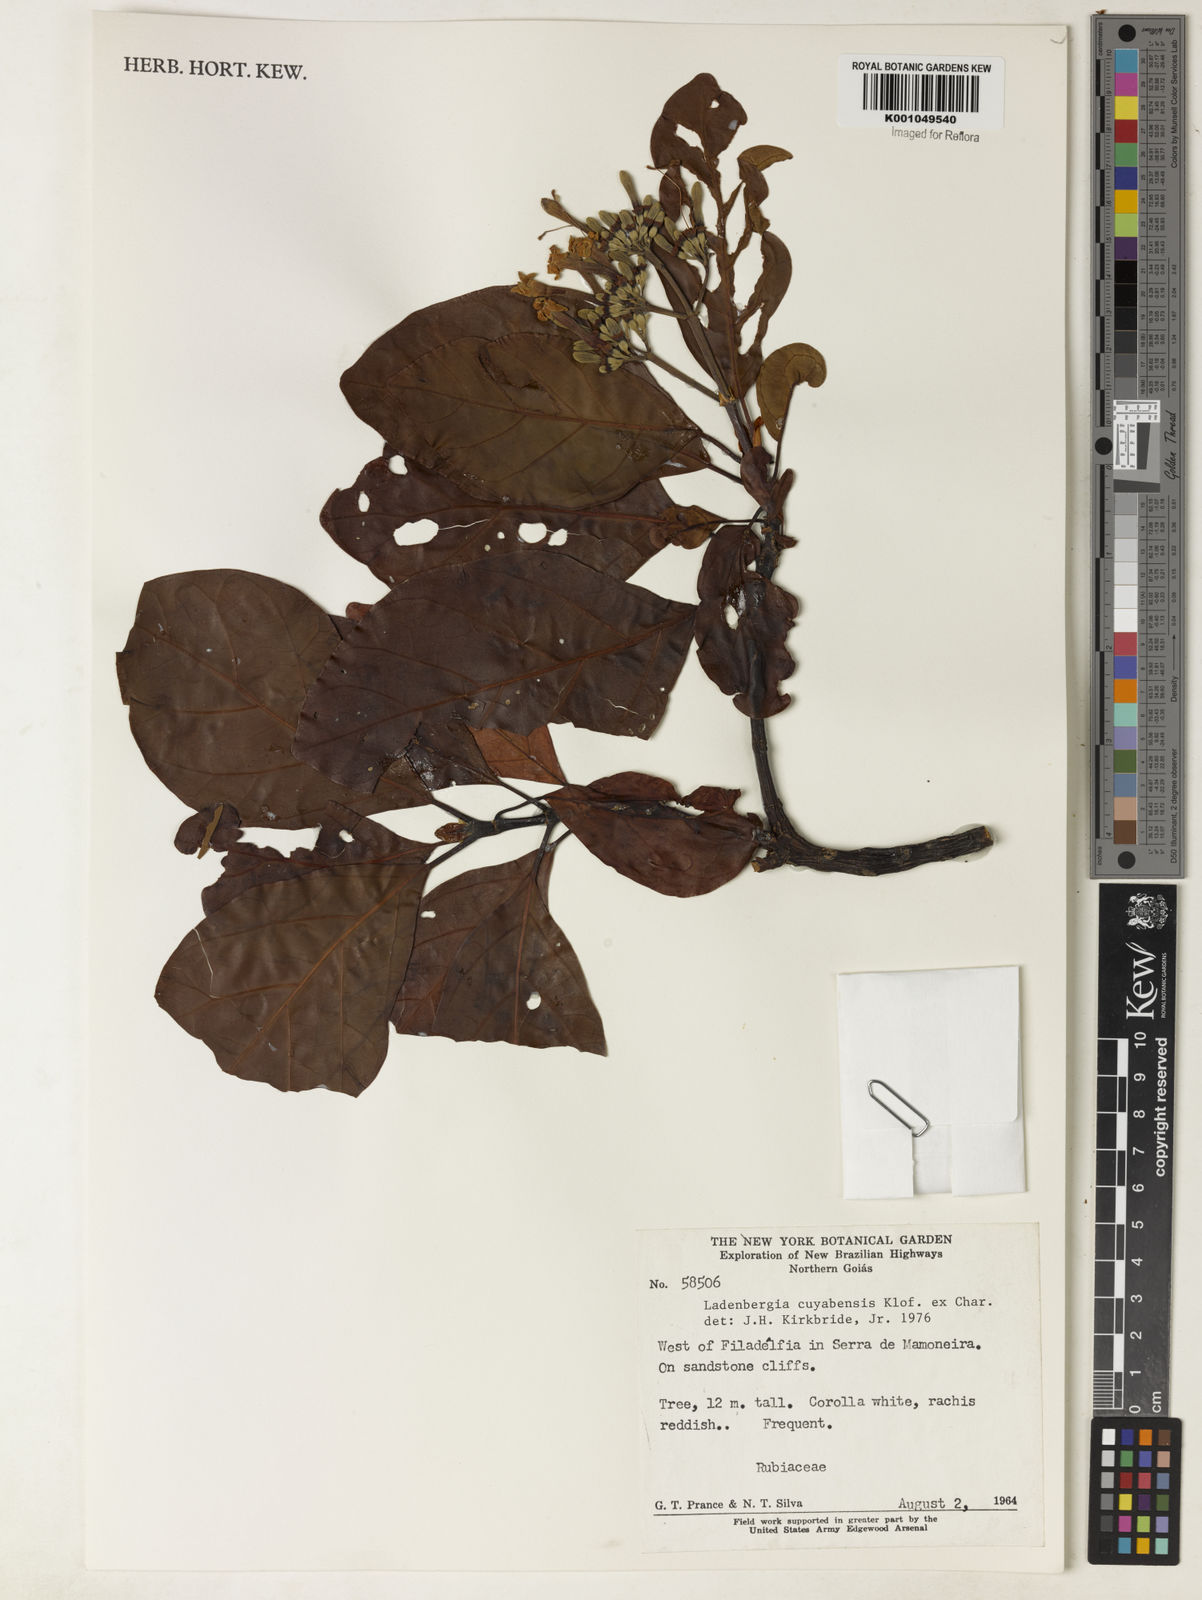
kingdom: Plantae
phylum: Tracheophyta
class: Magnoliopsida
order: Gentianales
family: Rubiaceae
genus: Ladenbergia
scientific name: Ladenbergia cujabensis
